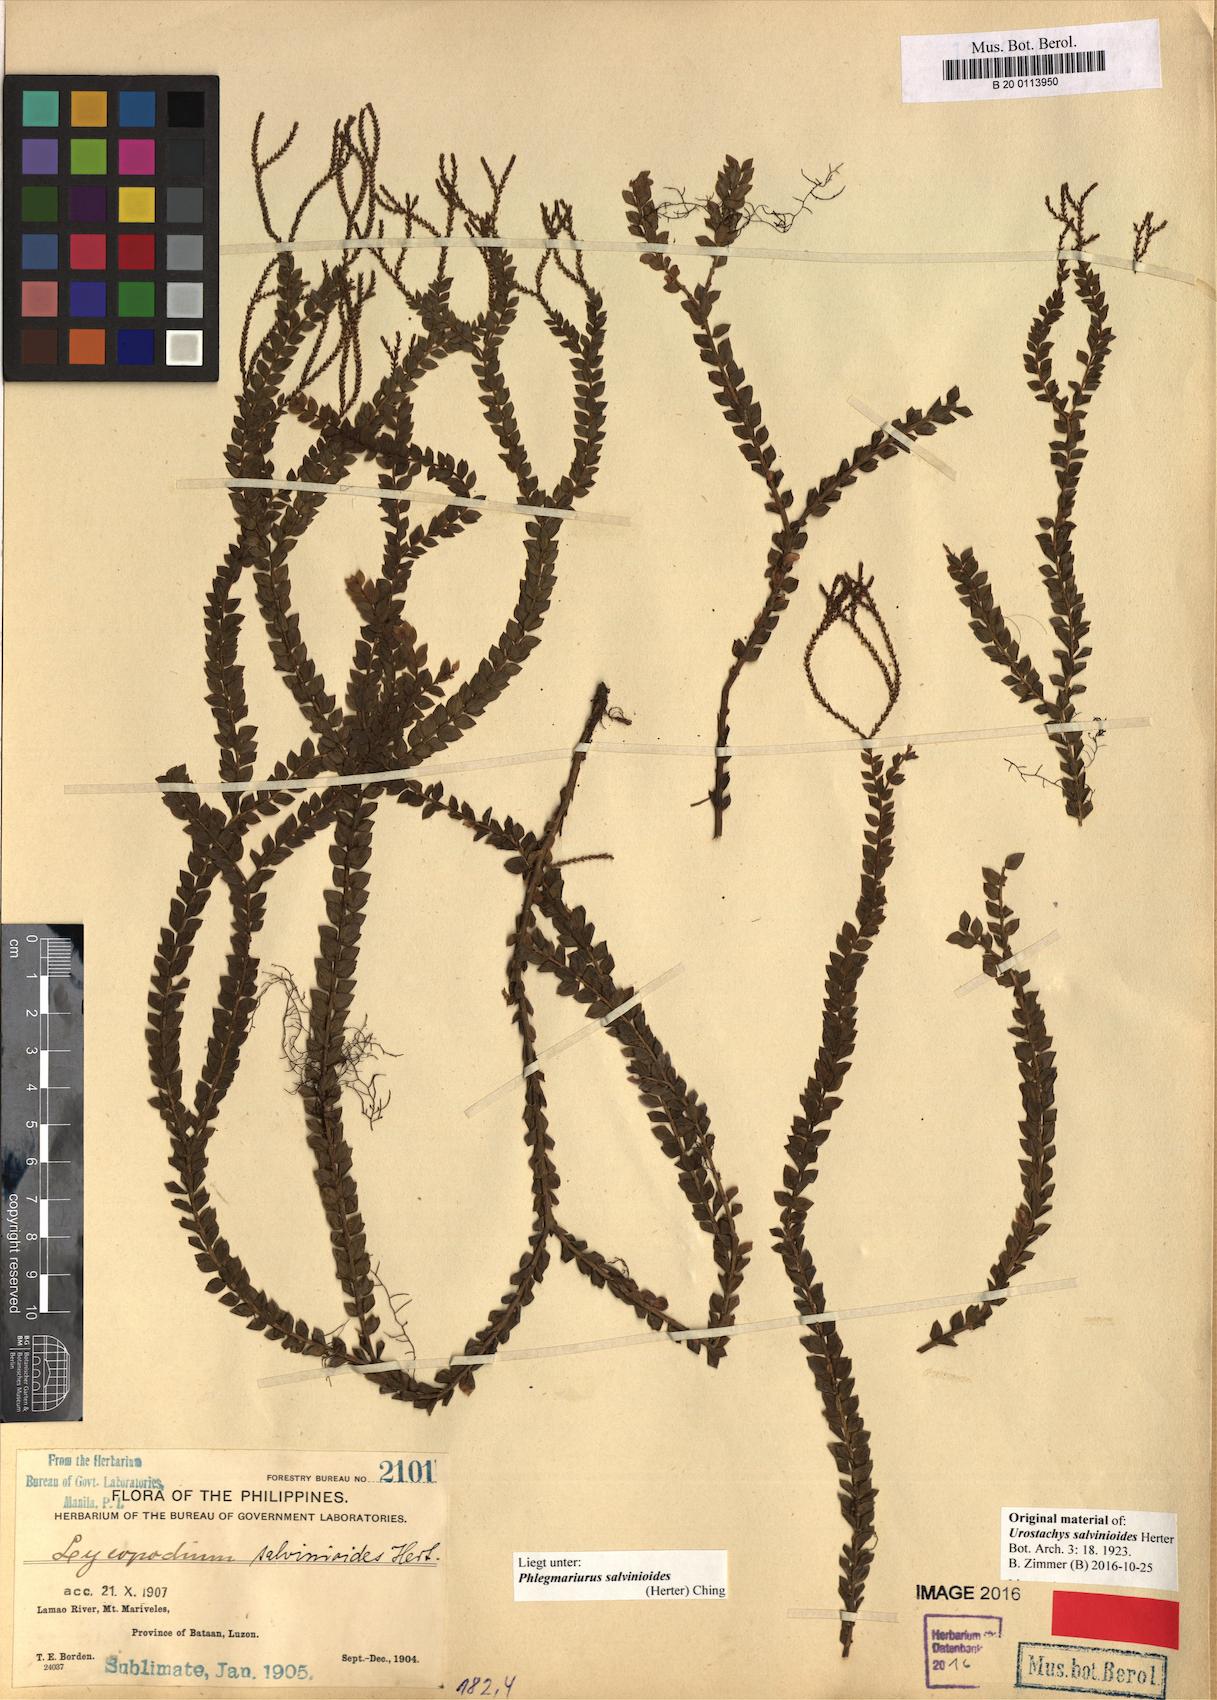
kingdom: Plantae
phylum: Tracheophyta
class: Lycopodiopsida
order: Lycopodiales
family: Lycopodiaceae
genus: Phlegmariurus
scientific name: Phlegmariurus salvinioides
